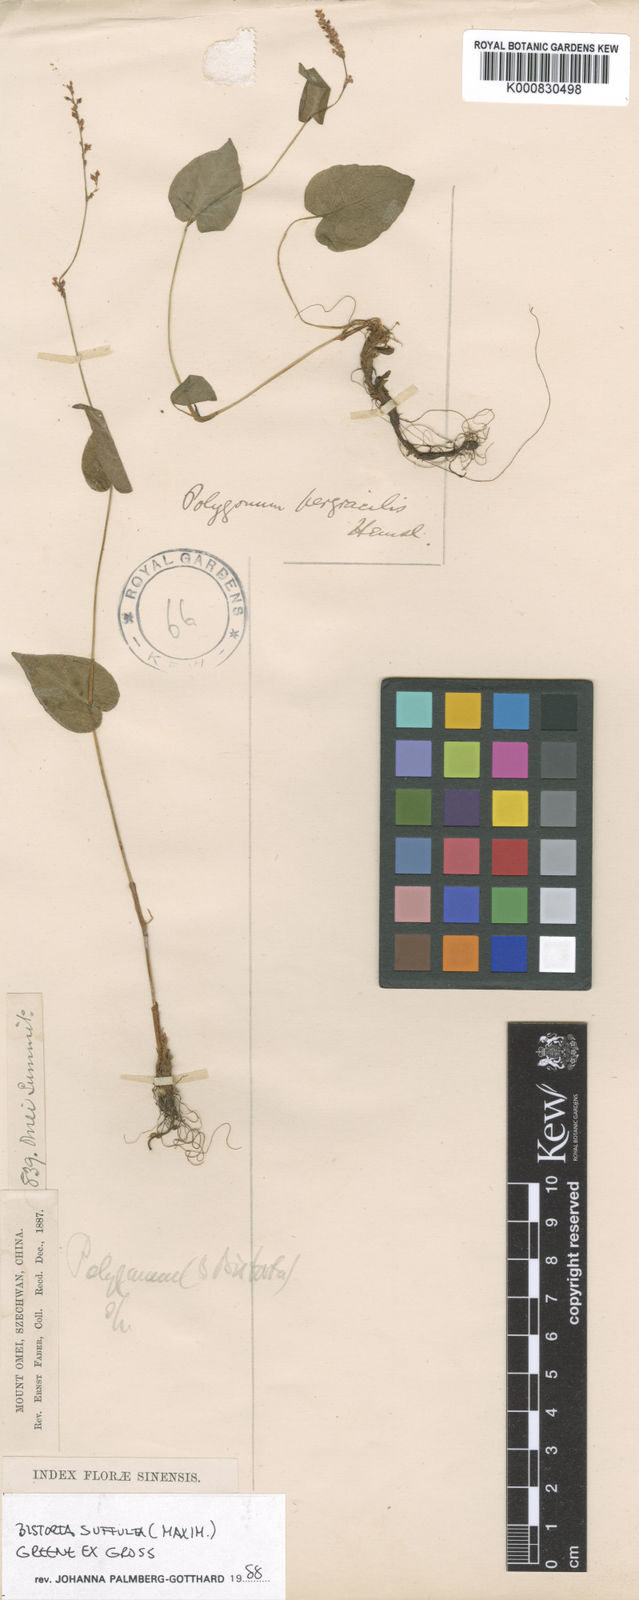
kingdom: Plantae
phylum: Tracheophyta
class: Magnoliopsida
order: Caryophyllales
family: Polygonaceae
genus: Bistorta
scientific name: Bistorta suffulta
